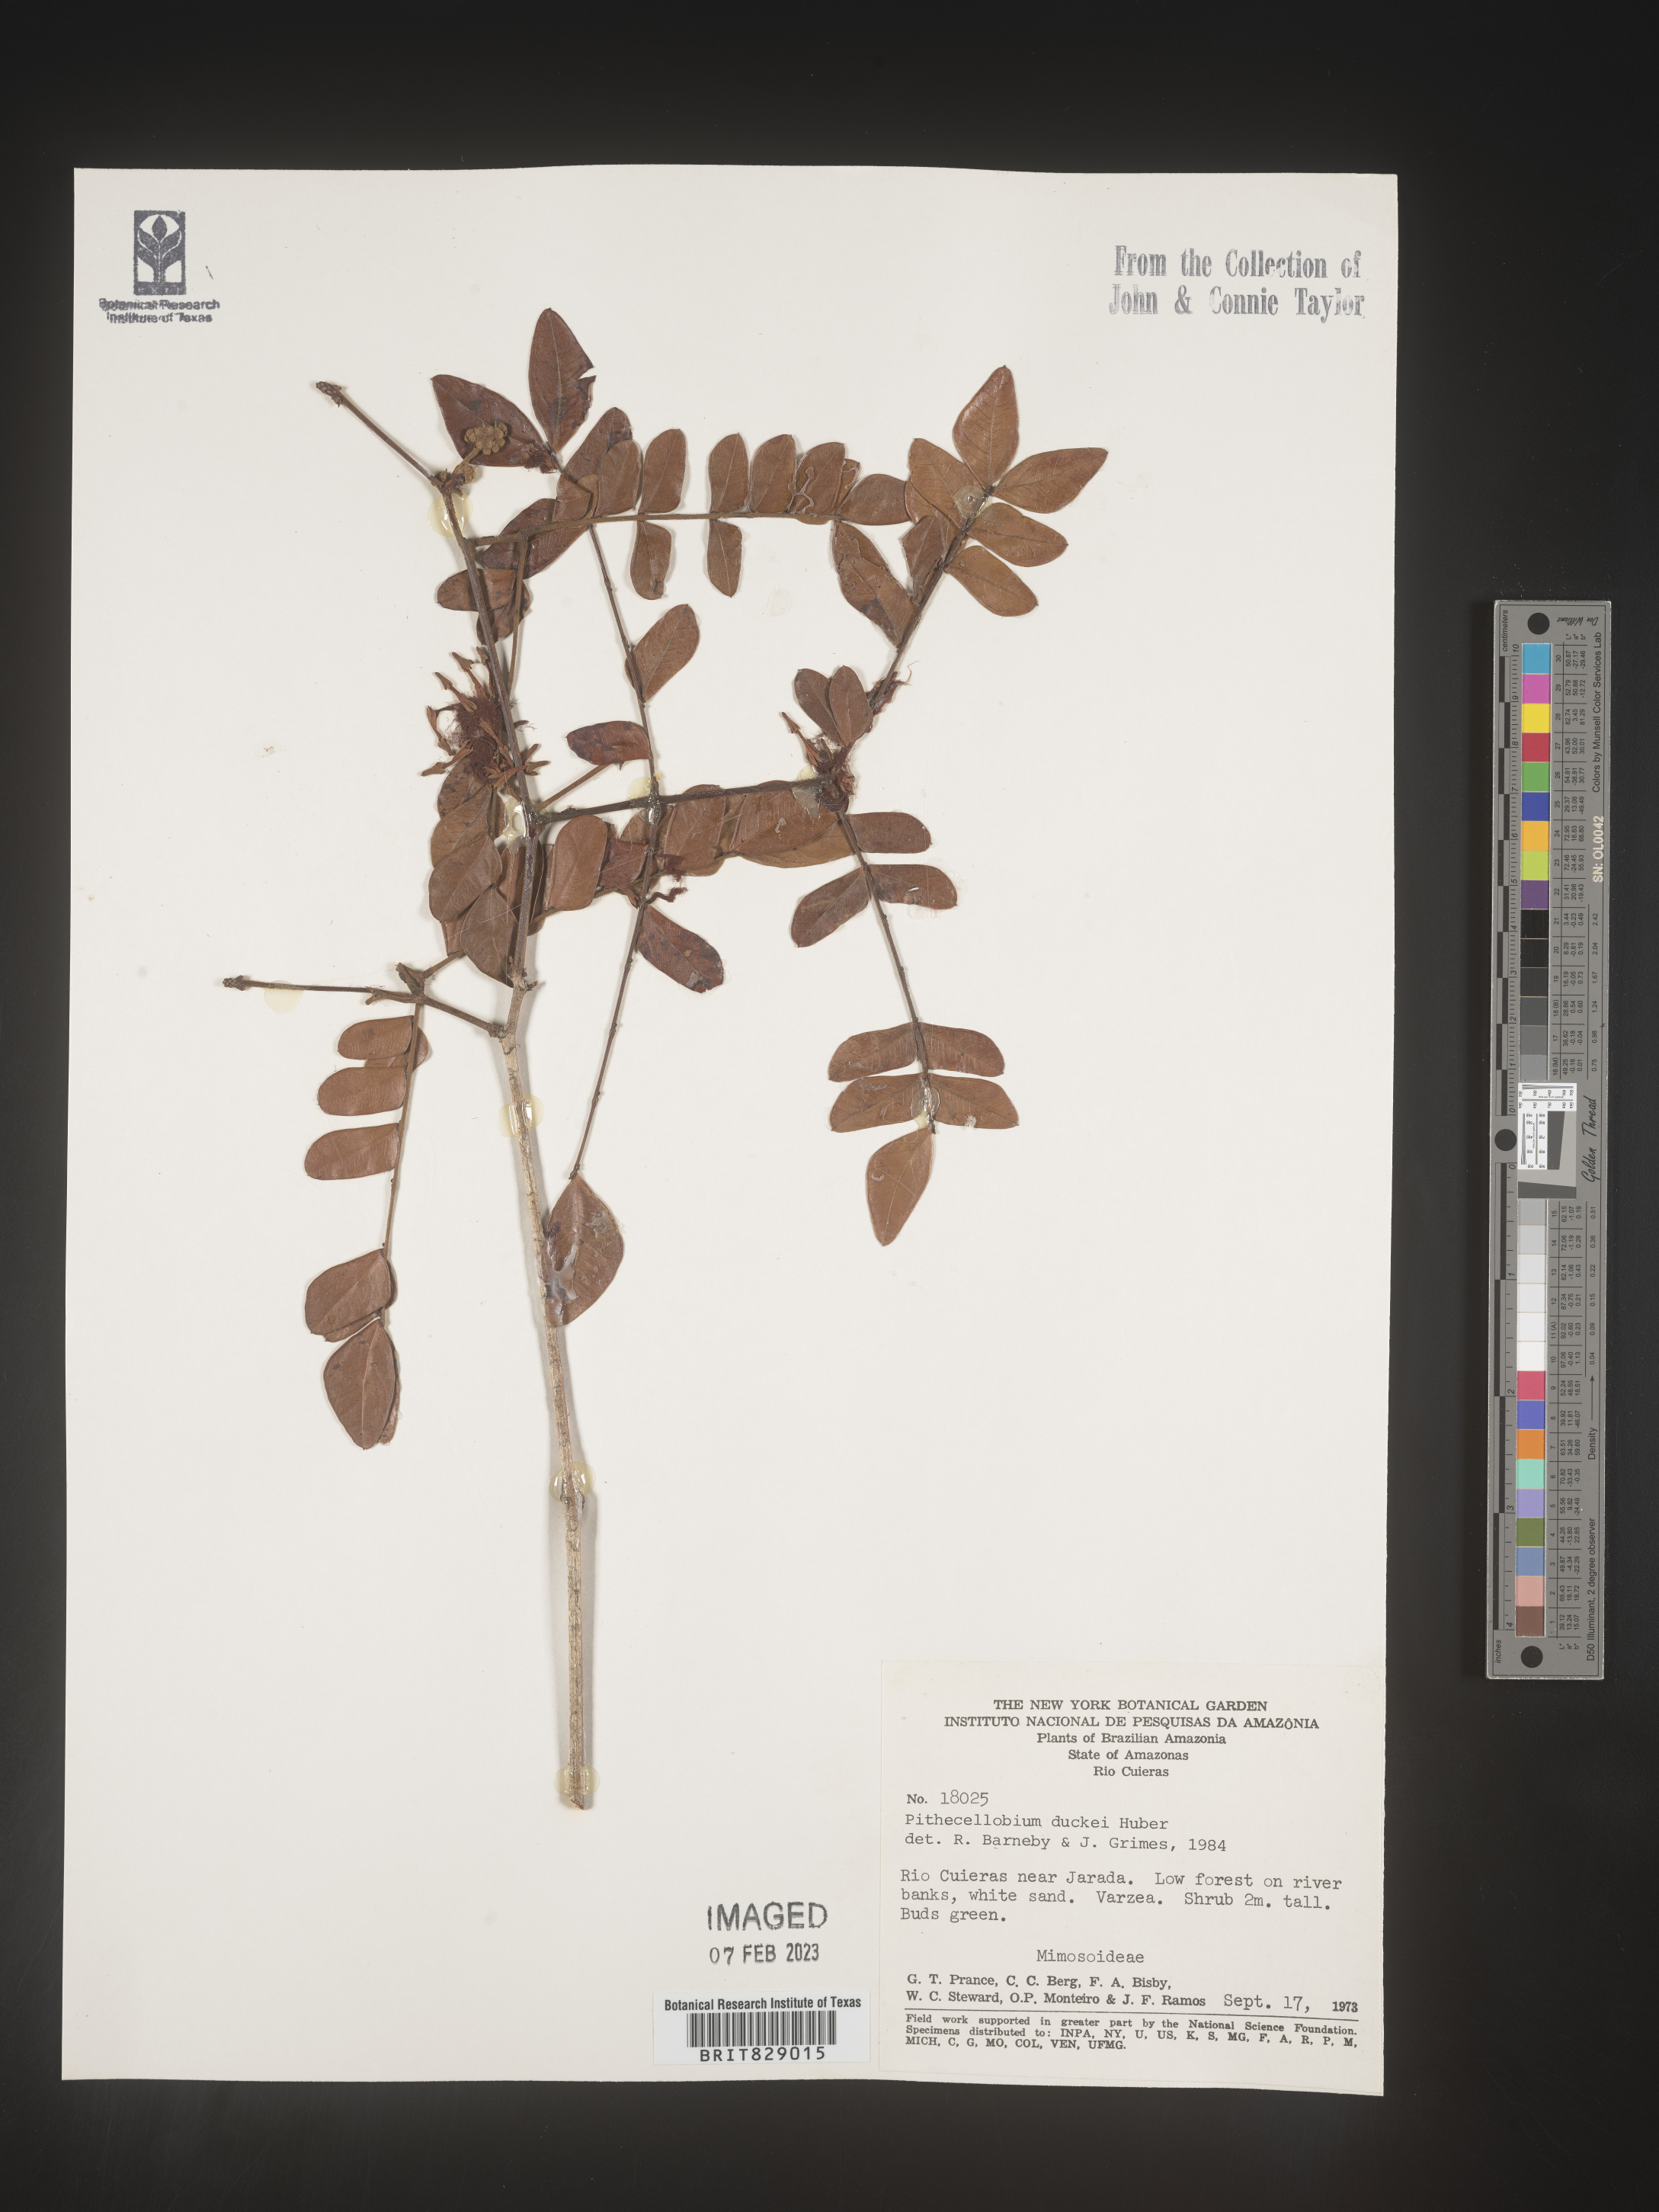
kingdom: Plantae
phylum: Tracheophyta
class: Magnoliopsida
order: Fabales
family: Fabaceae
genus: Pithecellobium
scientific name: Pithecellobium
